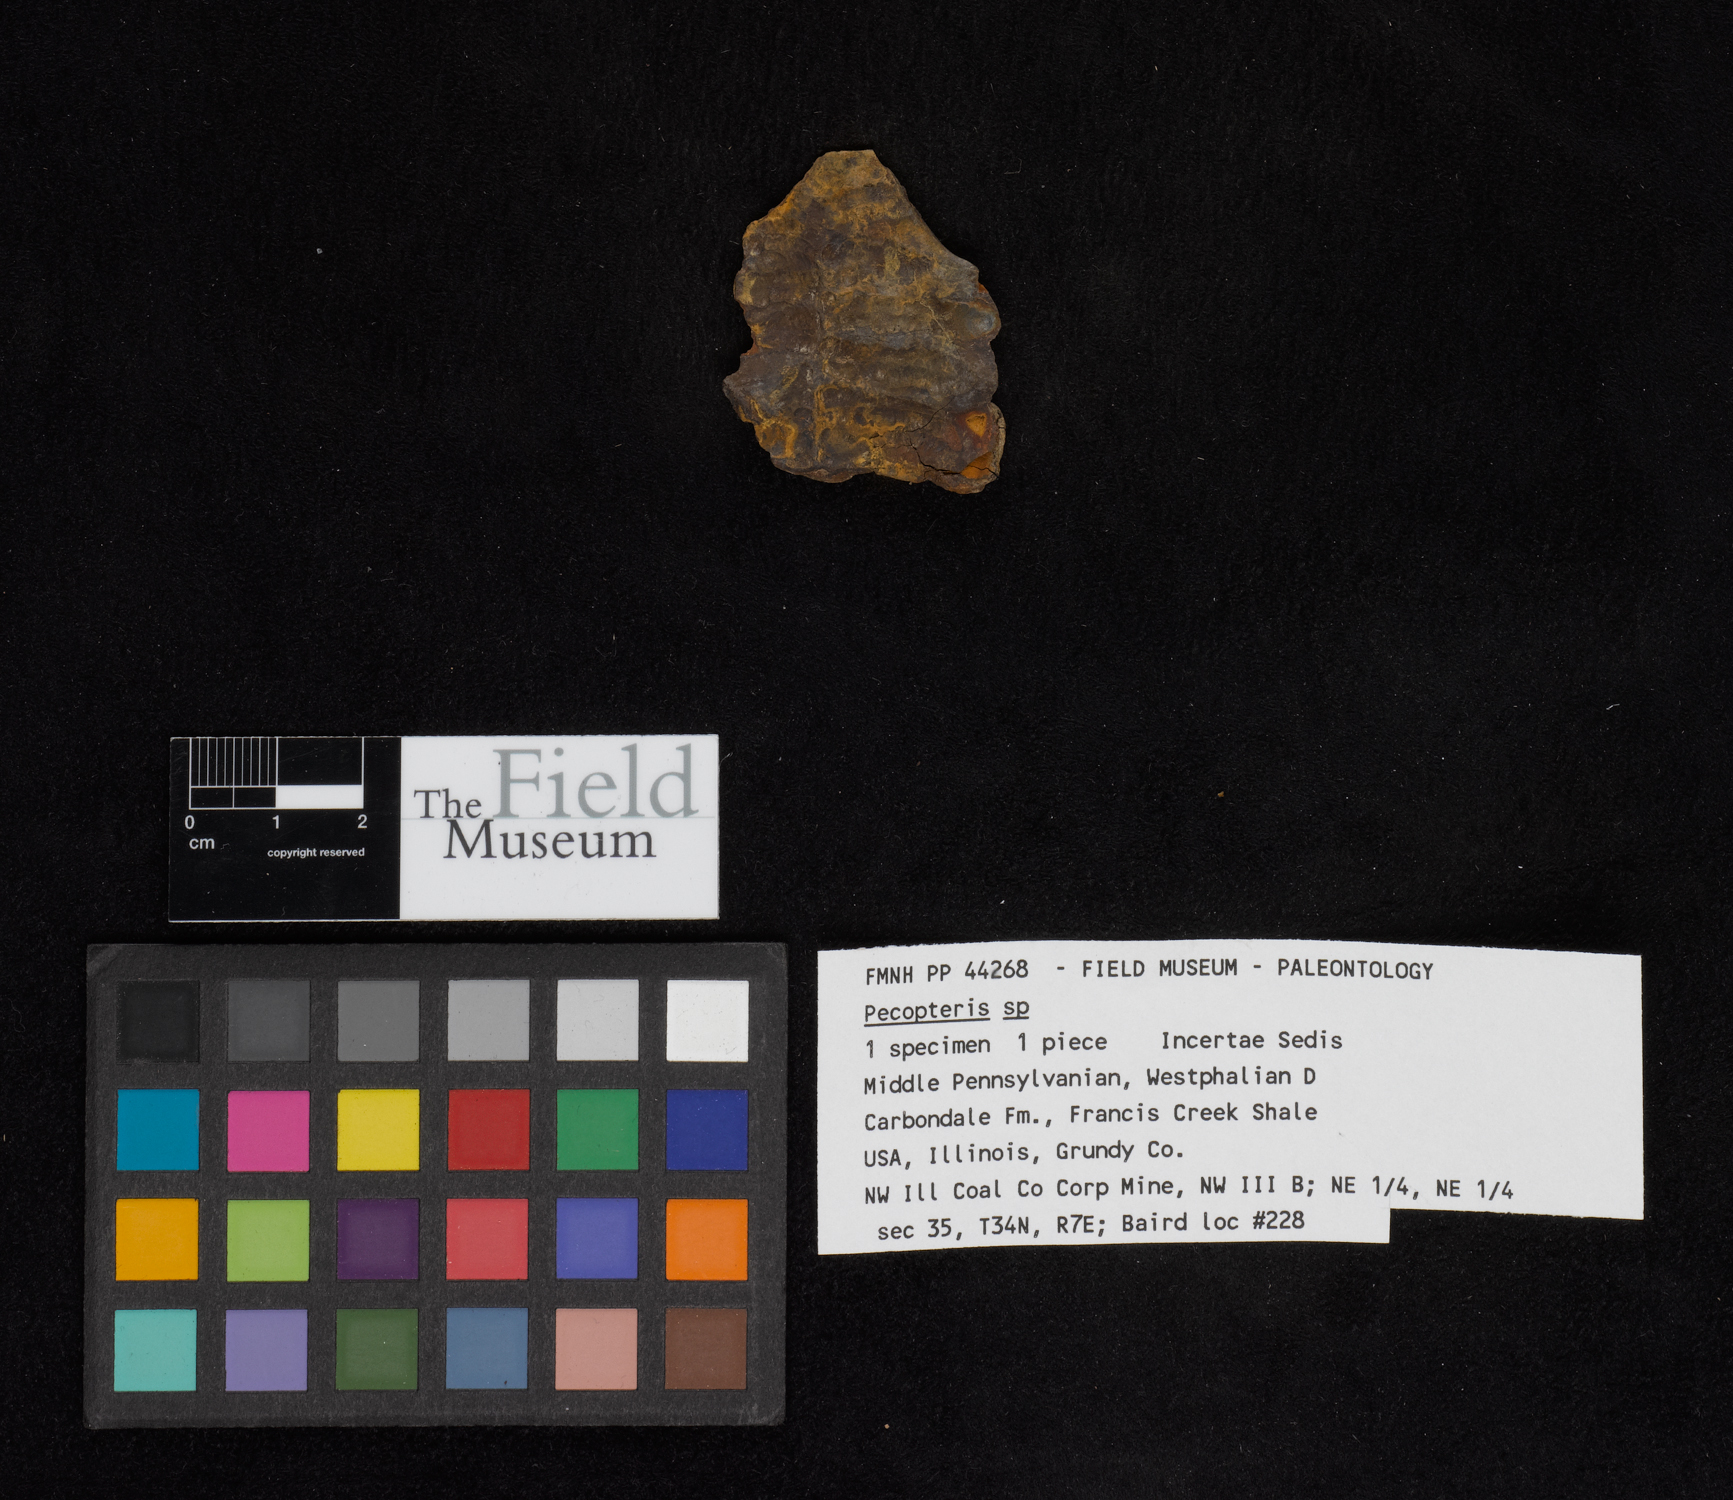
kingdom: Plantae
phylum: Tracheophyta
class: Polypodiopsida
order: Marattiales
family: Asterothecaceae
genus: Pecopteris
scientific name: Pecopteris
